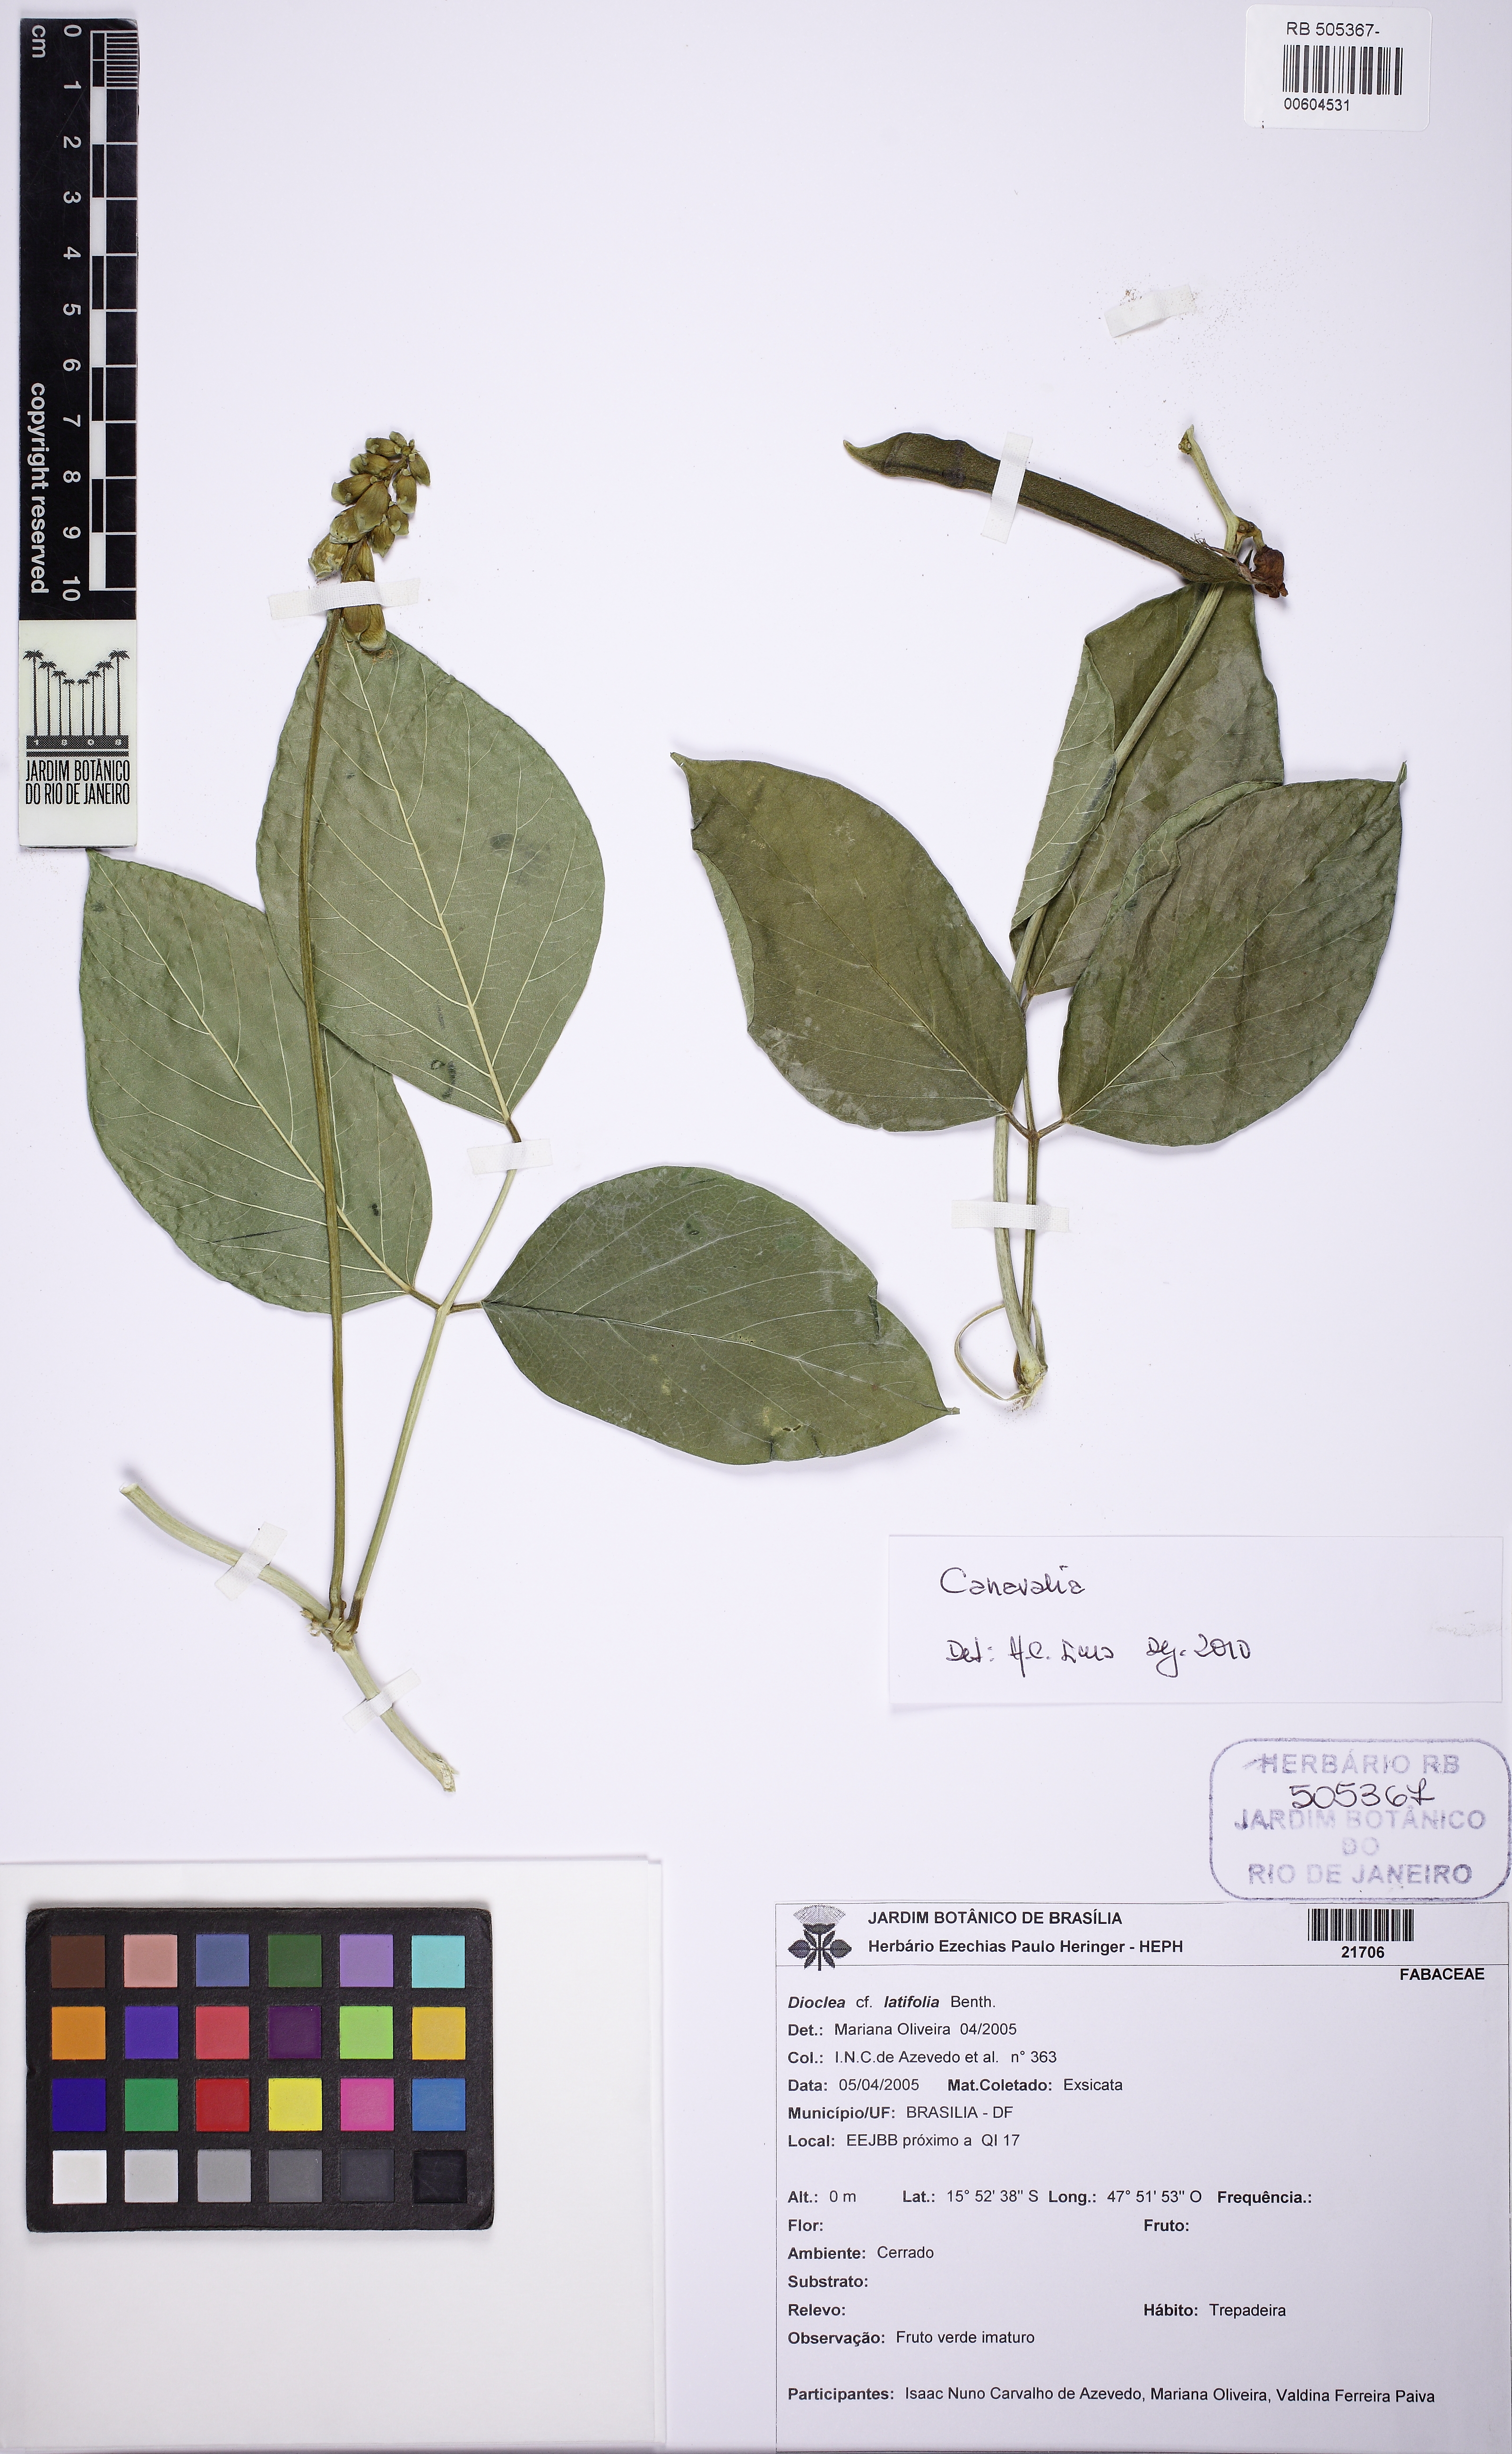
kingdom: Plantae
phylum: Tracheophyta
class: Magnoliopsida
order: Fabales
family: Fabaceae
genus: Canavalia
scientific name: Canavalia brasiliensis
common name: Barbicou-bean
